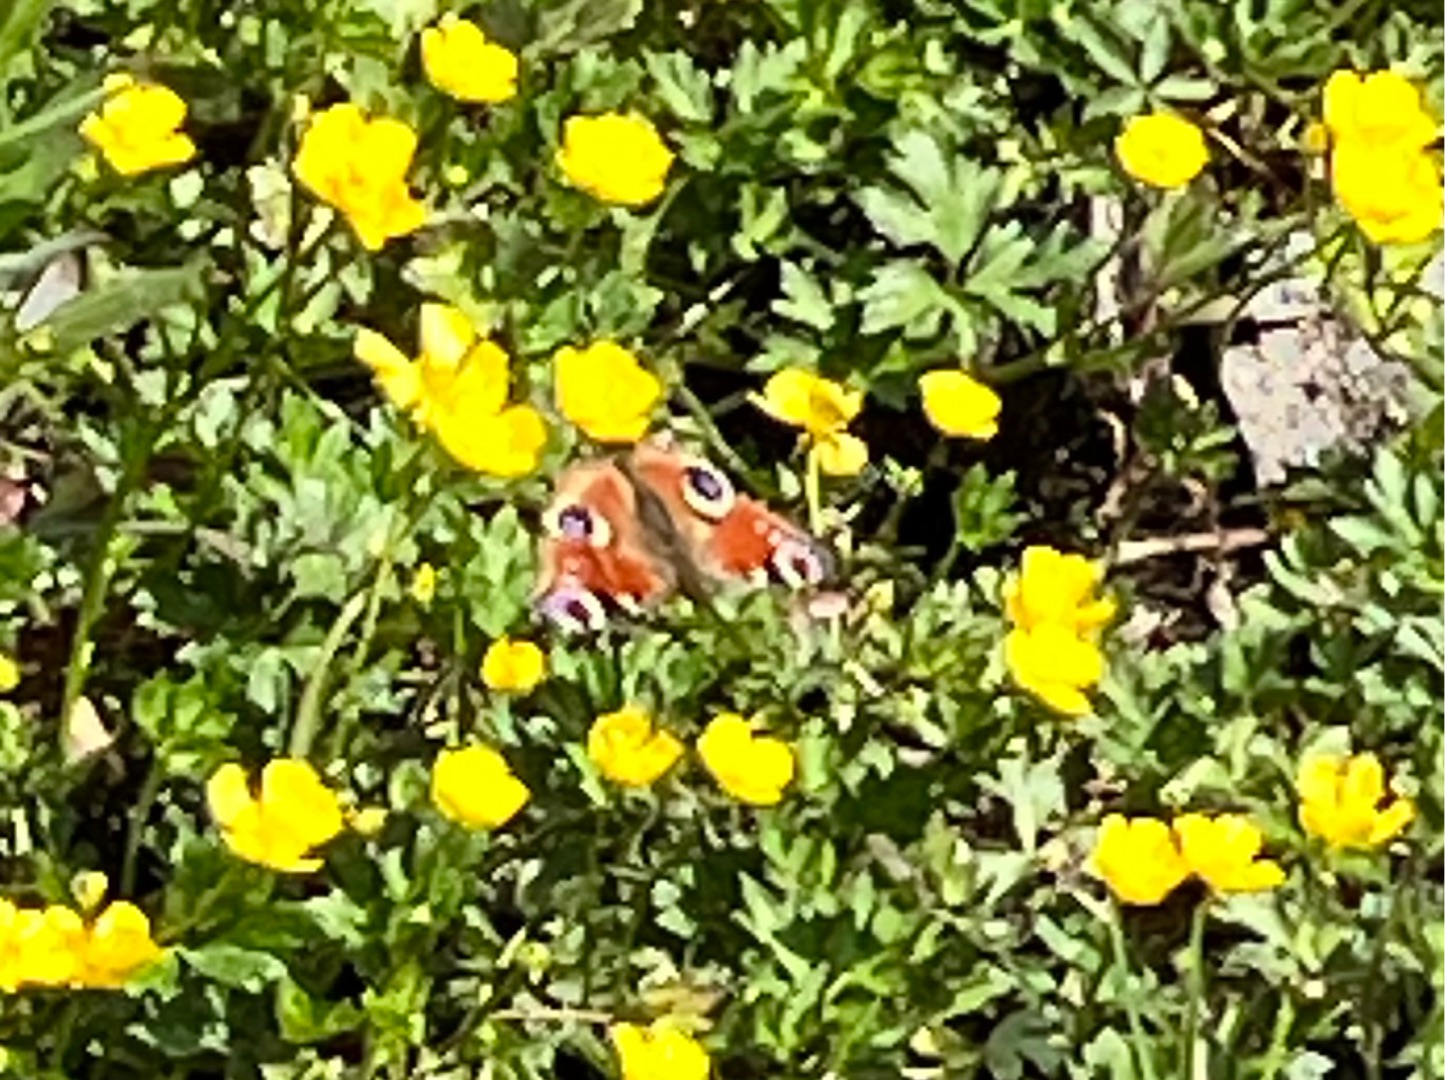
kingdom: Animalia
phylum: Arthropoda
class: Insecta
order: Lepidoptera
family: Nymphalidae
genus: Aglais
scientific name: Aglais io
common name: Dagpåfugleøje
